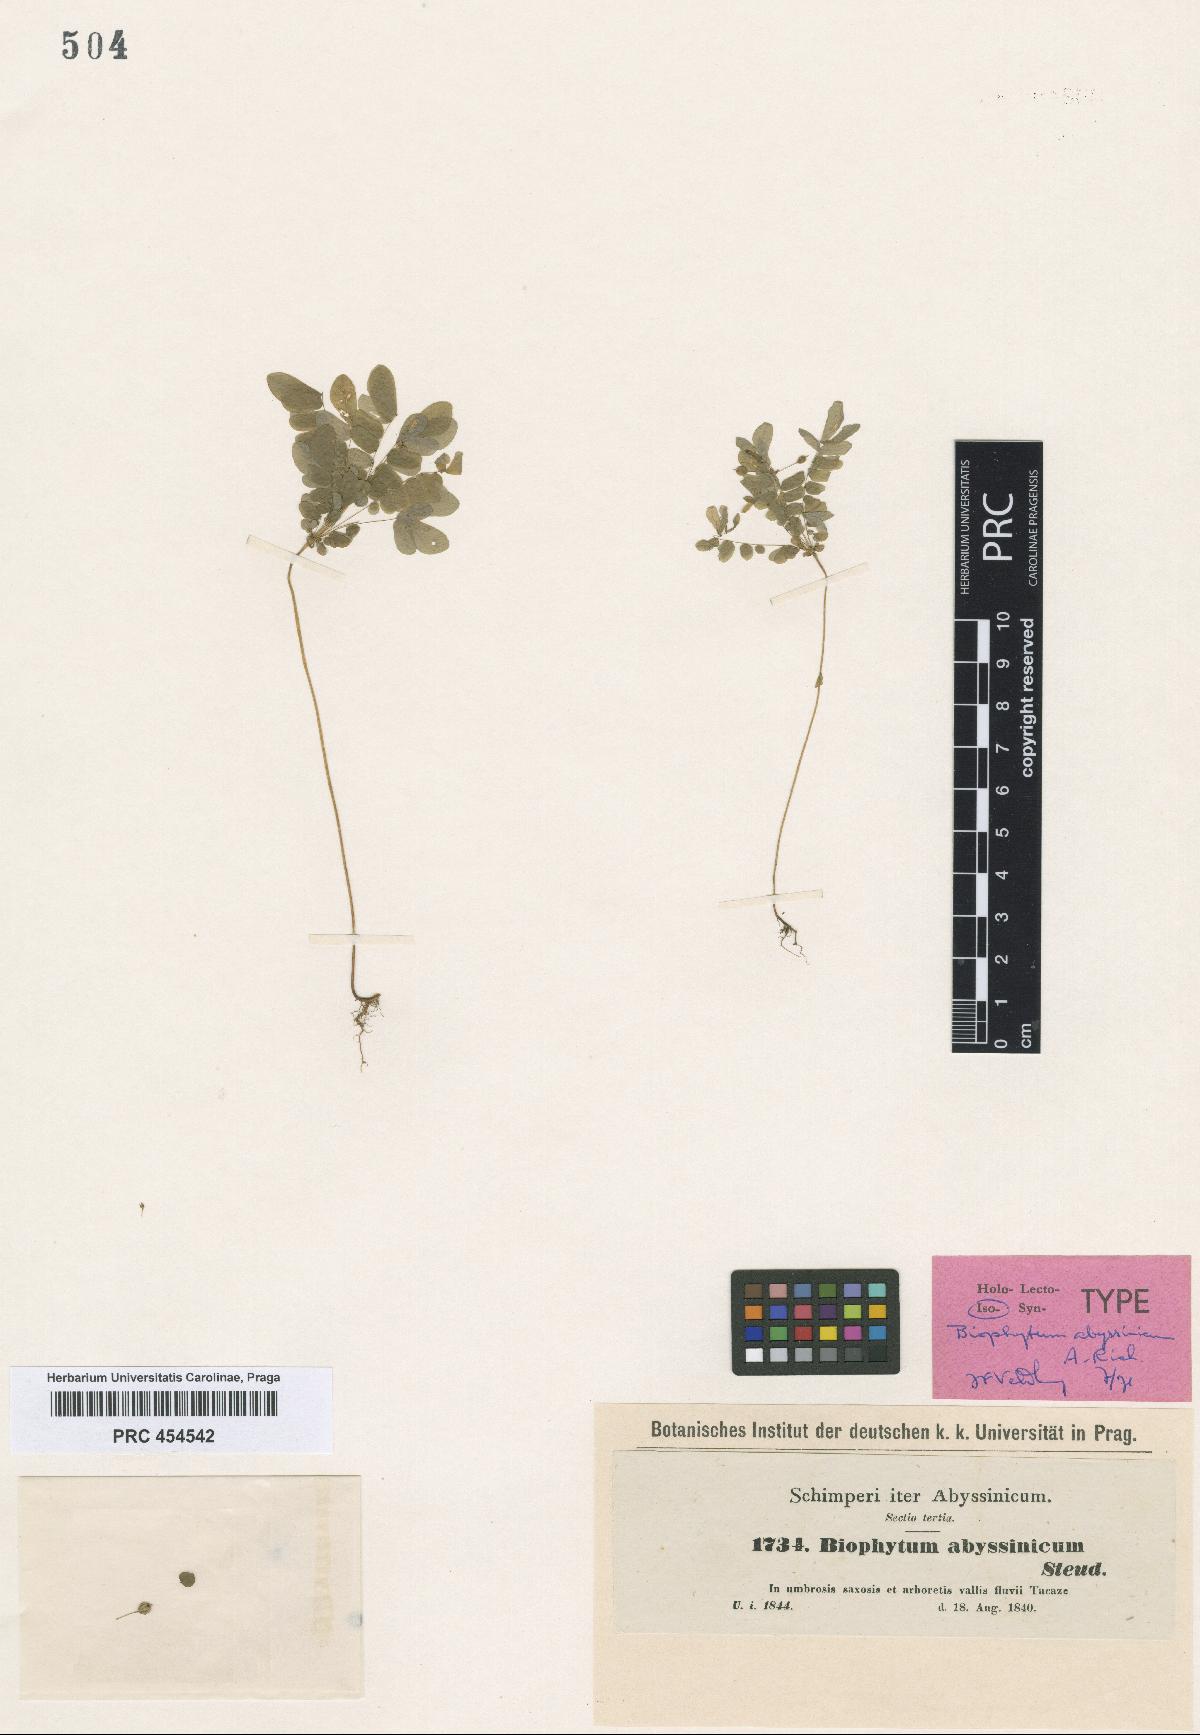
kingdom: Plantae
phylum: Tracheophyta
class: Magnoliopsida
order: Oxalidales
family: Oxalidaceae
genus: Biophytum
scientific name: Biophytum abyssinicum
